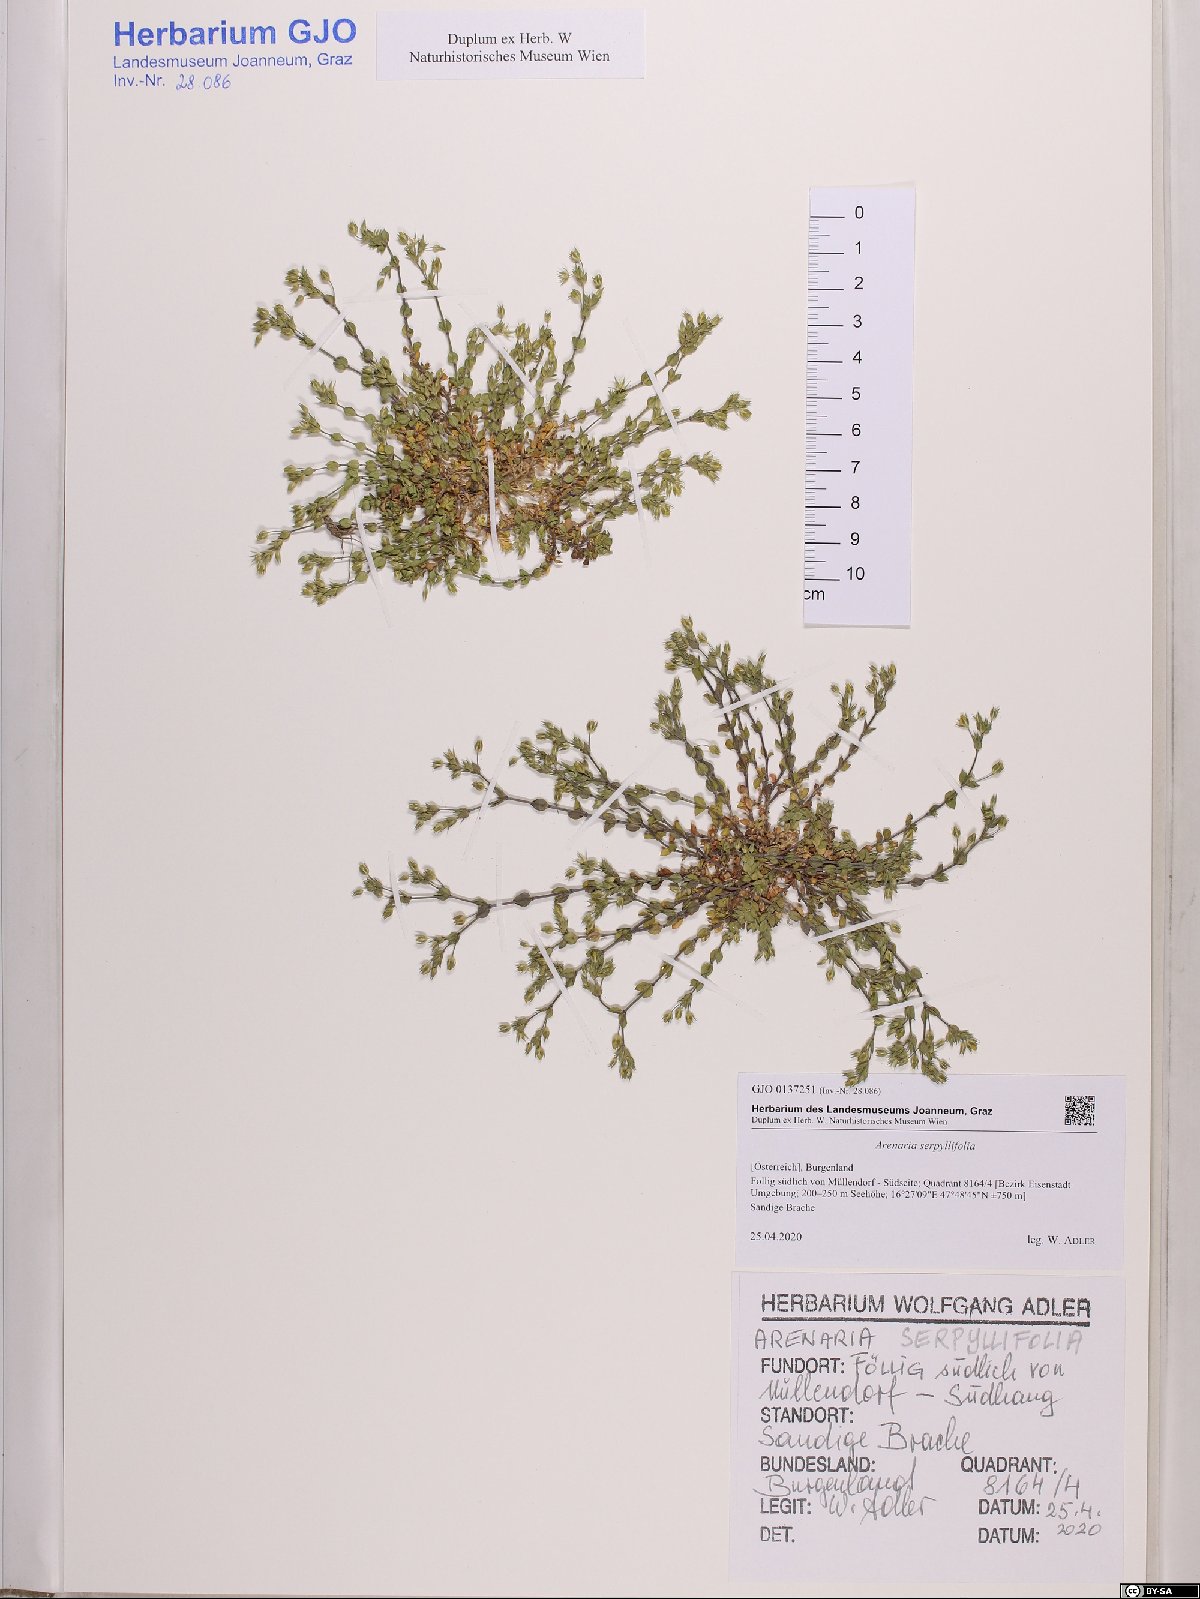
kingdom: Plantae
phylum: Tracheophyta
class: Magnoliopsida
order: Caryophyllales
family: Caryophyllaceae
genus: Arenaria
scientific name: Arenaria serpyllifolia
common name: Thyme-leaved sandwort
